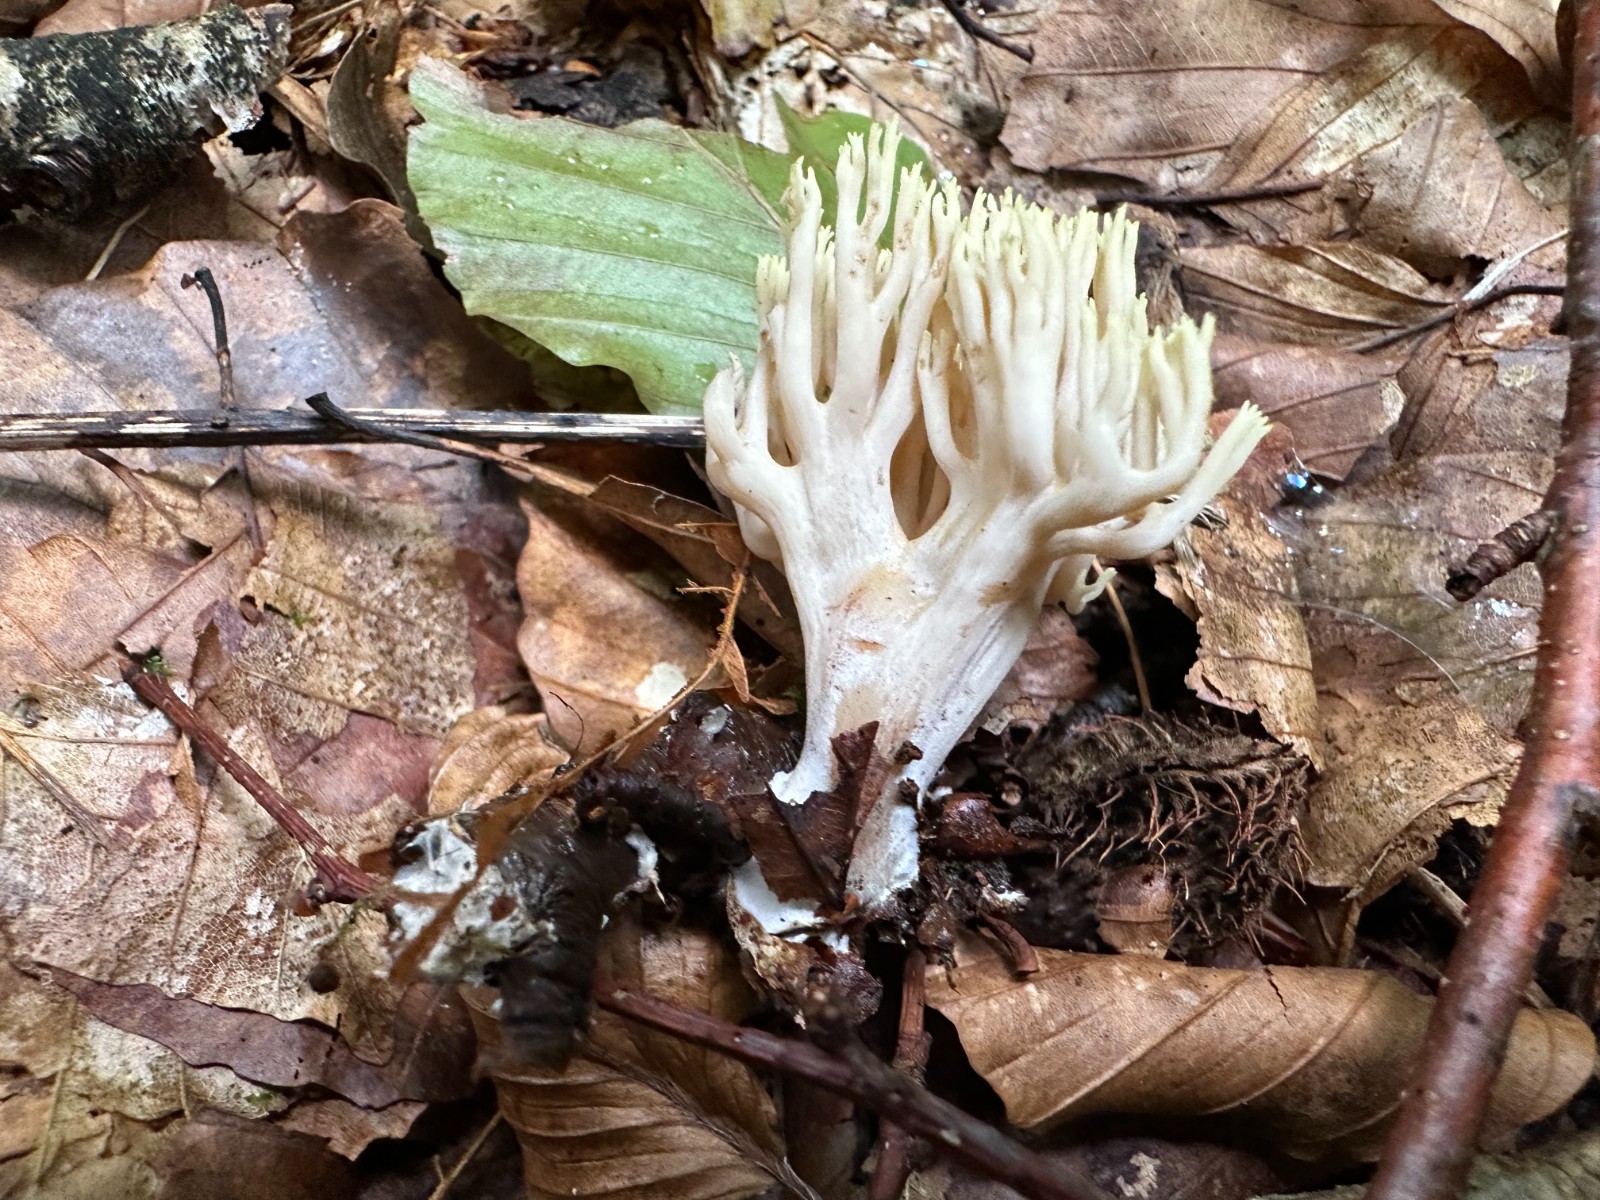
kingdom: Fungi
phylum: Basidiomycota
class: Agaricomycetes
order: Gomphales
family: Gomphaceae
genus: Ramaria
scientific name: Ramaria stricta
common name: rank koralsvamp
